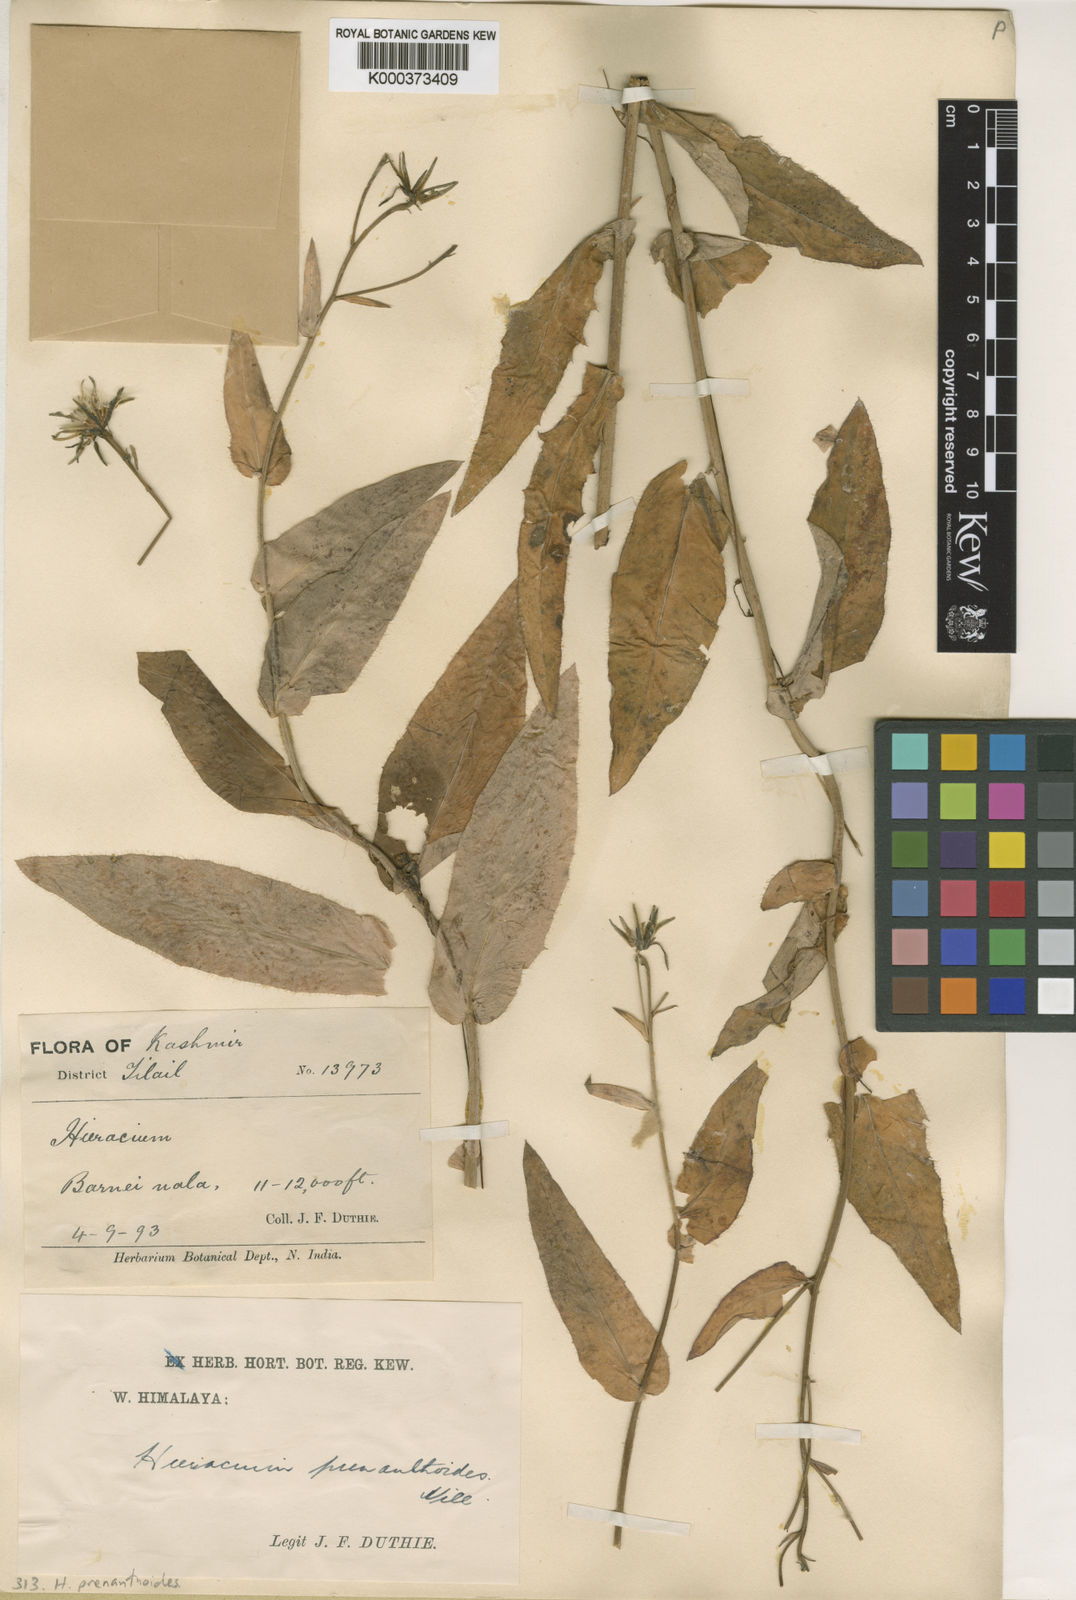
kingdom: Plantae
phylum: Tracheophyta
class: Magnoliopsida
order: Asterales
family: Asteraceae
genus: Hieracium
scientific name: Hieracium prenanthoides
